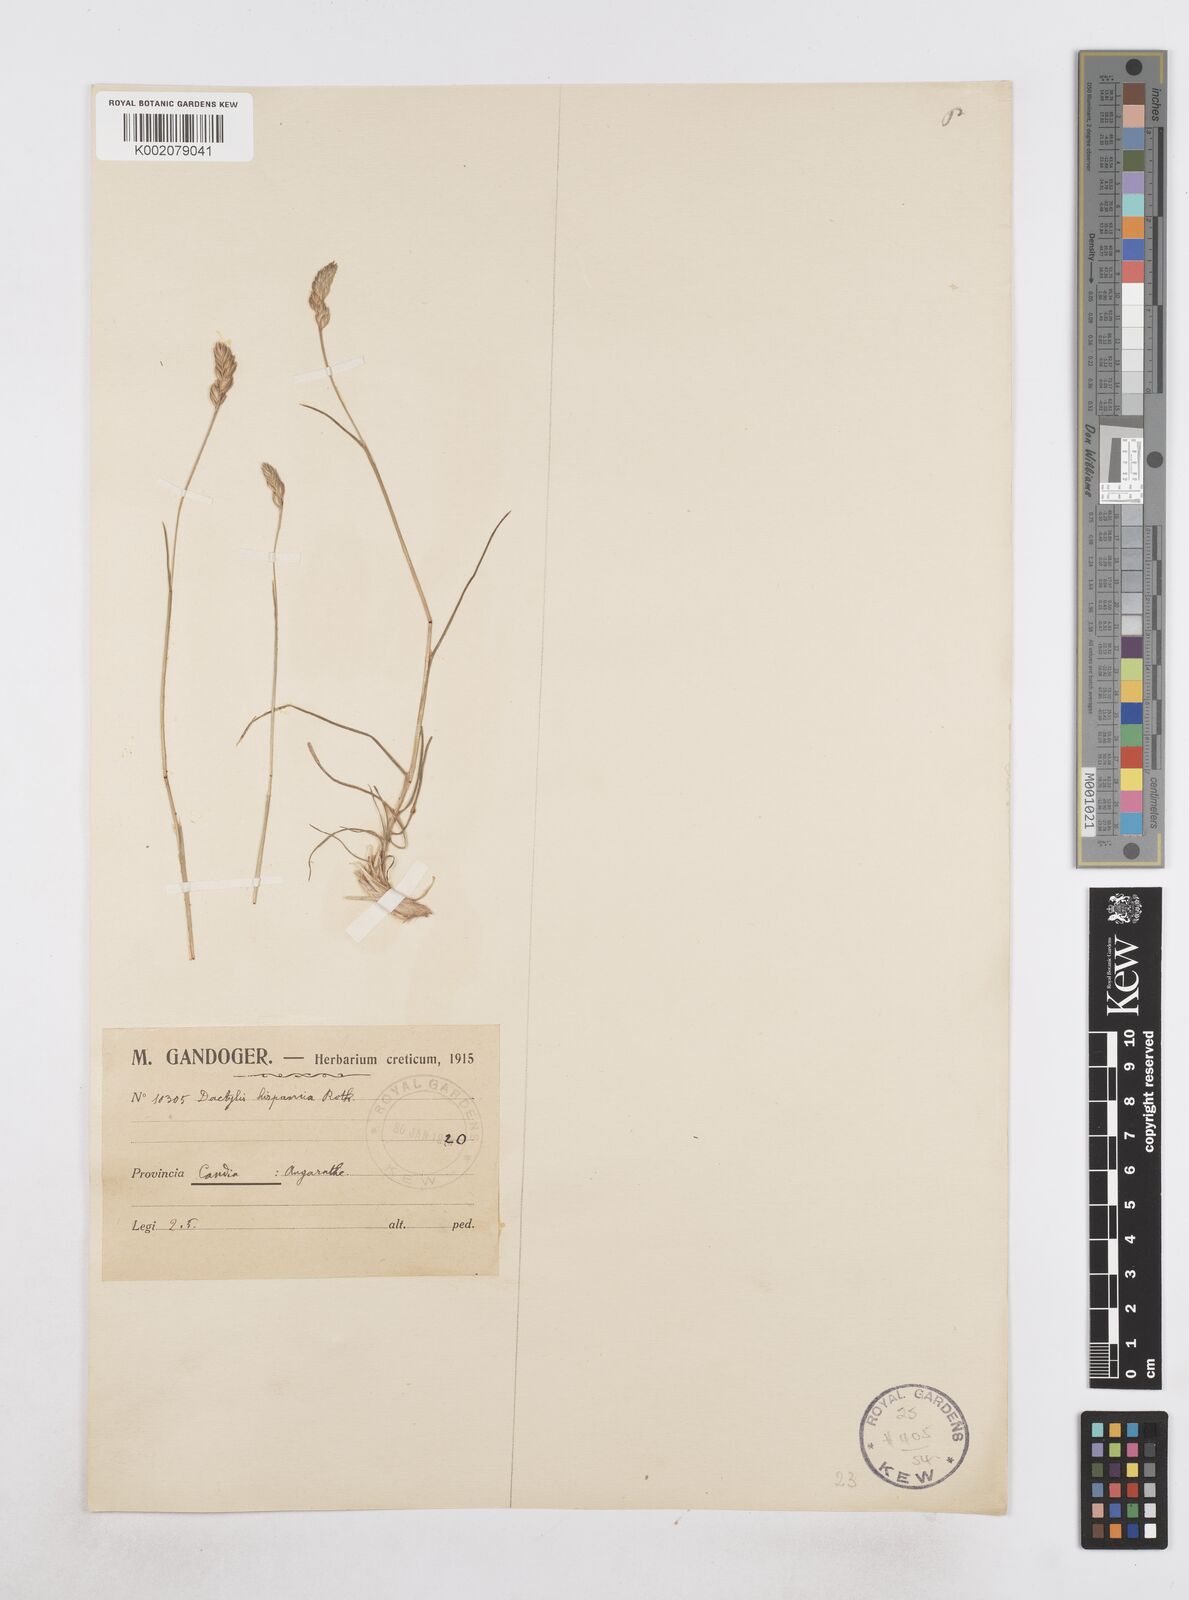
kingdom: Plantae
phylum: Tracheophyta
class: Liliopsida
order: Poales
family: Poaceae
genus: Dactylis
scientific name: Dactylis glomerata
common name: Orchardgrass
